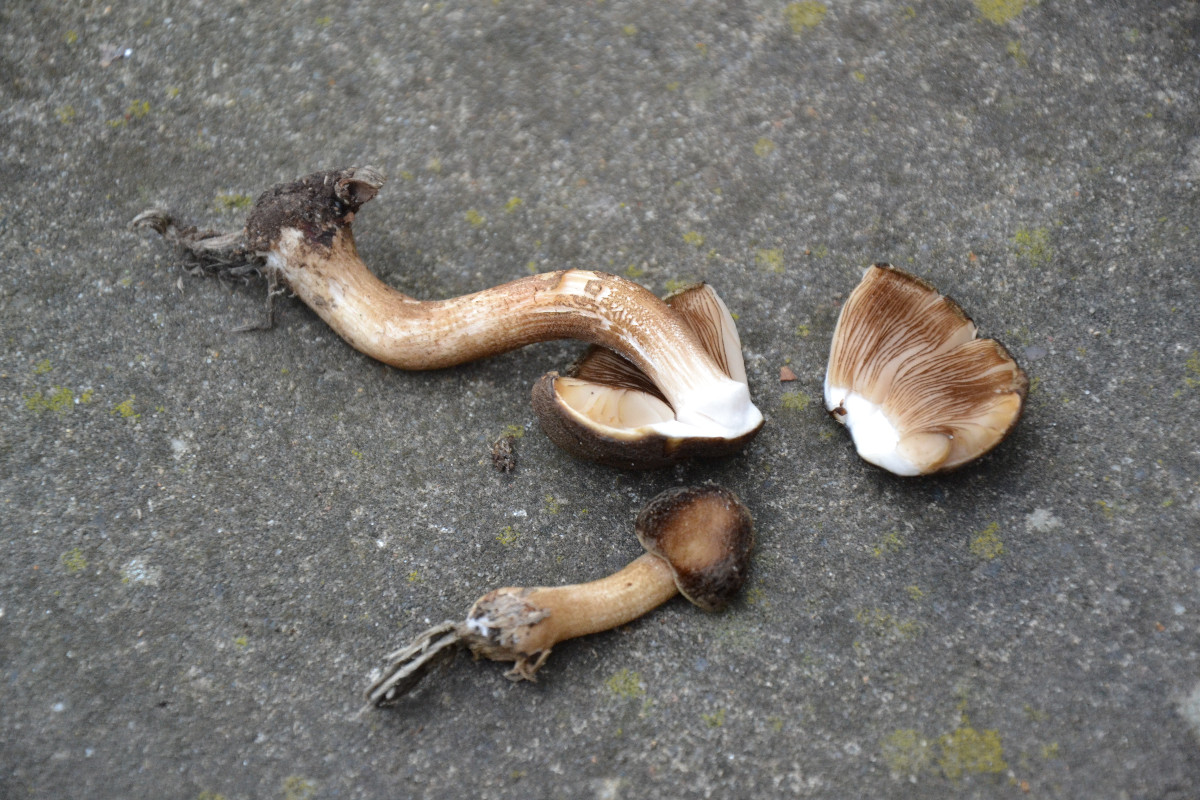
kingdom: Fungi
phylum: Basidiomycota
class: Agaricomycetes
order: Agaricales
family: Pluteaceae
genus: Pluteus
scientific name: Pluteus umbrosus
